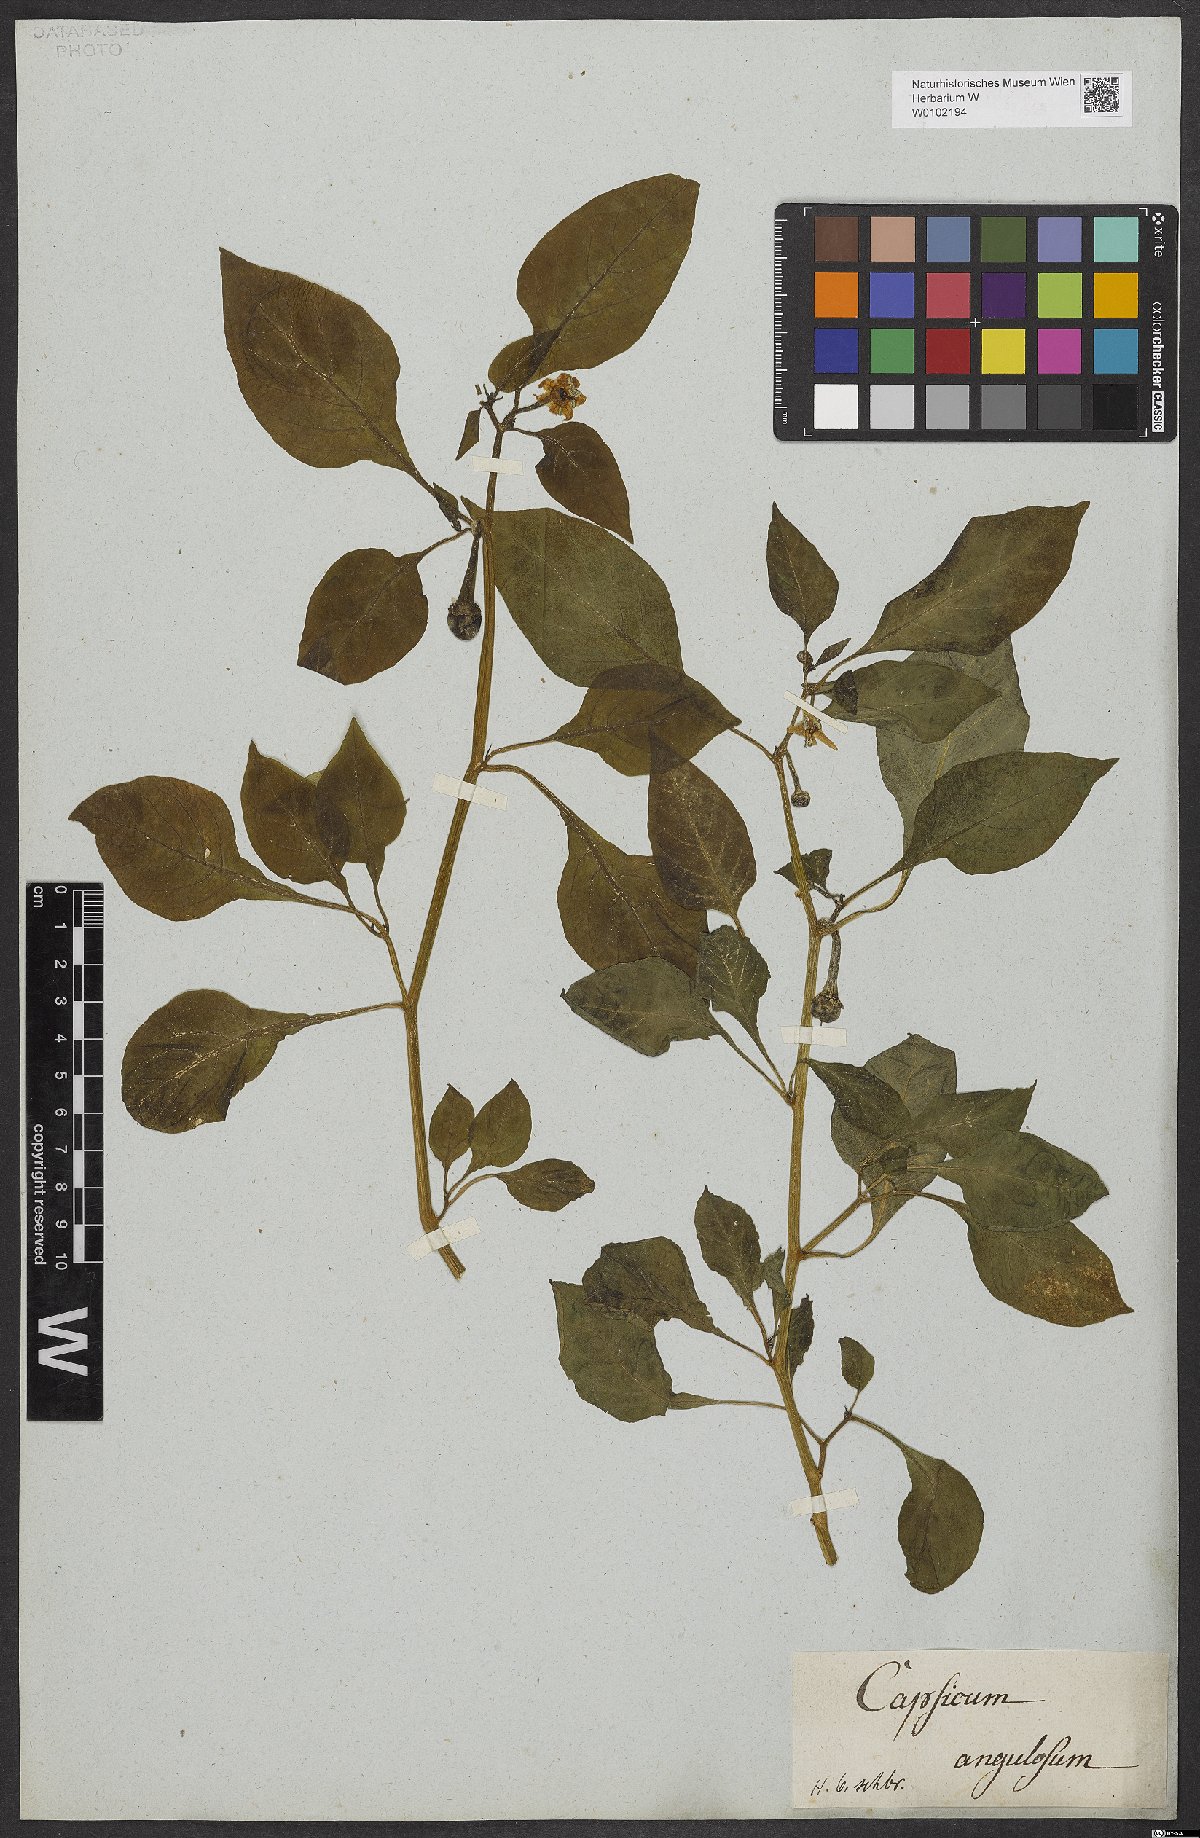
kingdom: Plantae
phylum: Tracheophyta
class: Magnoliopsida
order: Solanales
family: Solanaceae
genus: Capsicum
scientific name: Capsicum annuum
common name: Sweet pepper
